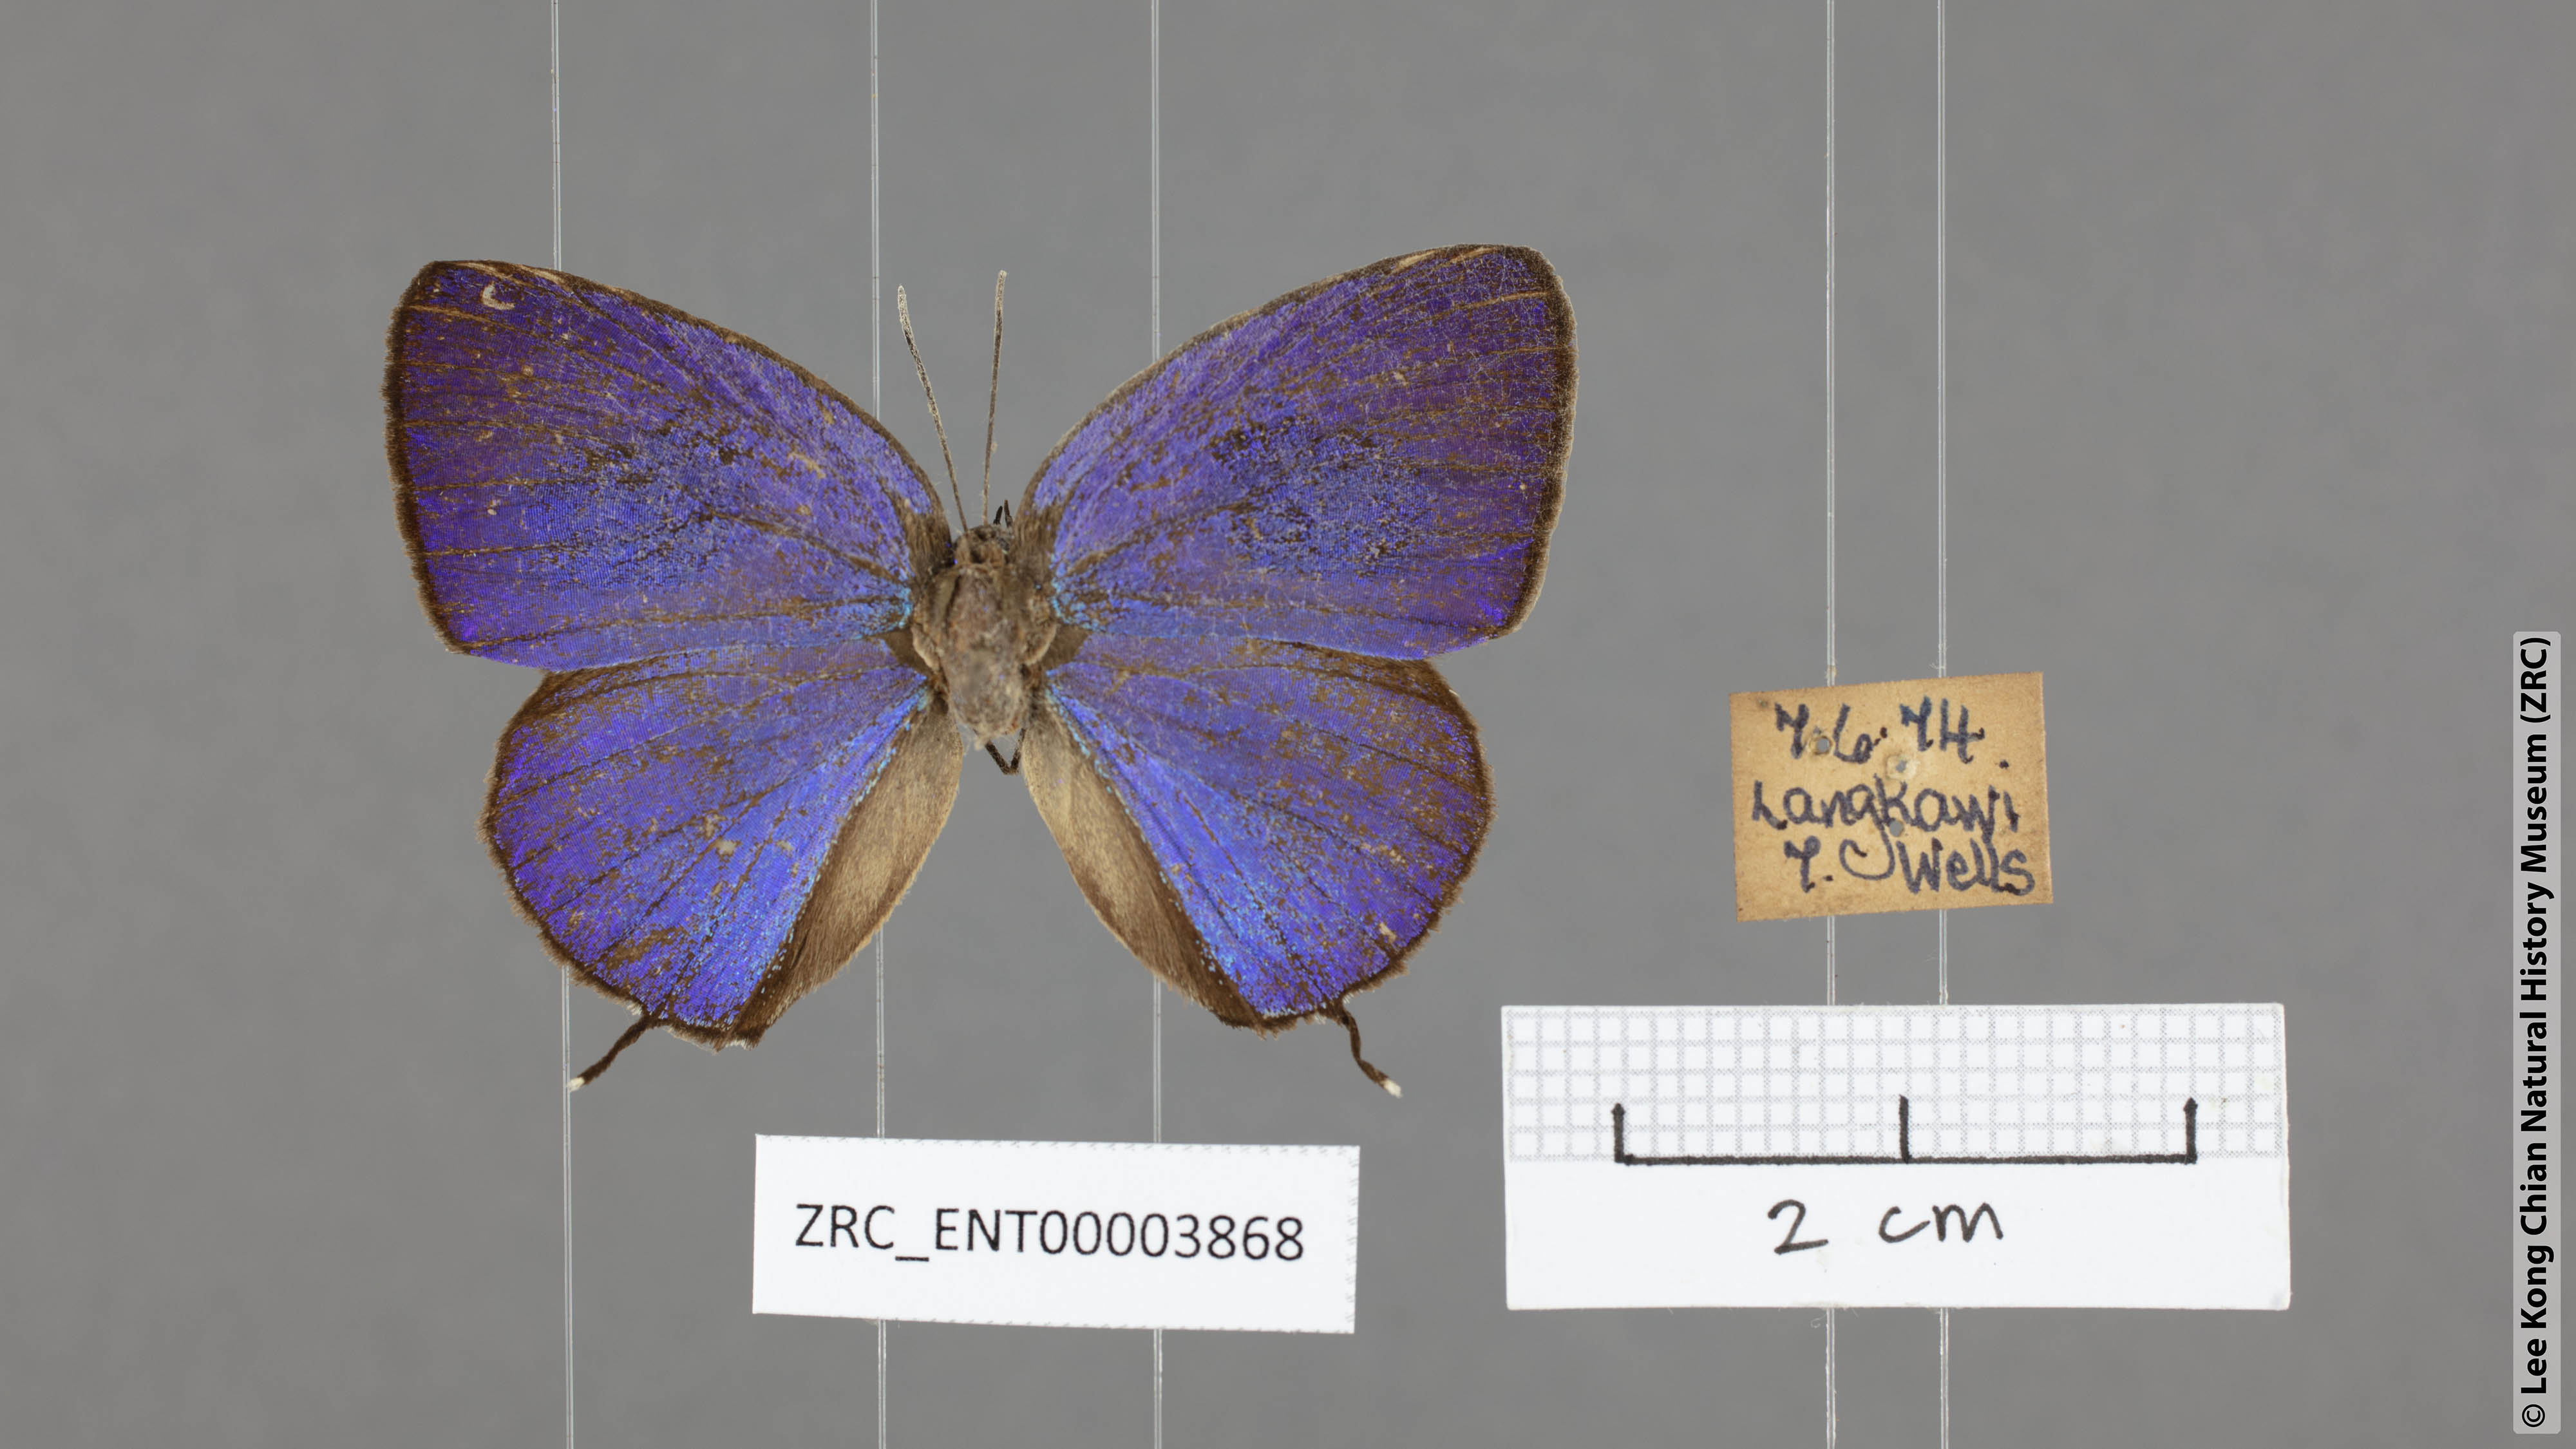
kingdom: Animalia
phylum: Arthropoda
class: Insecta
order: Lepidoptera
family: Lycaenidae
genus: Arhopala
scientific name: Arhopala atosia
